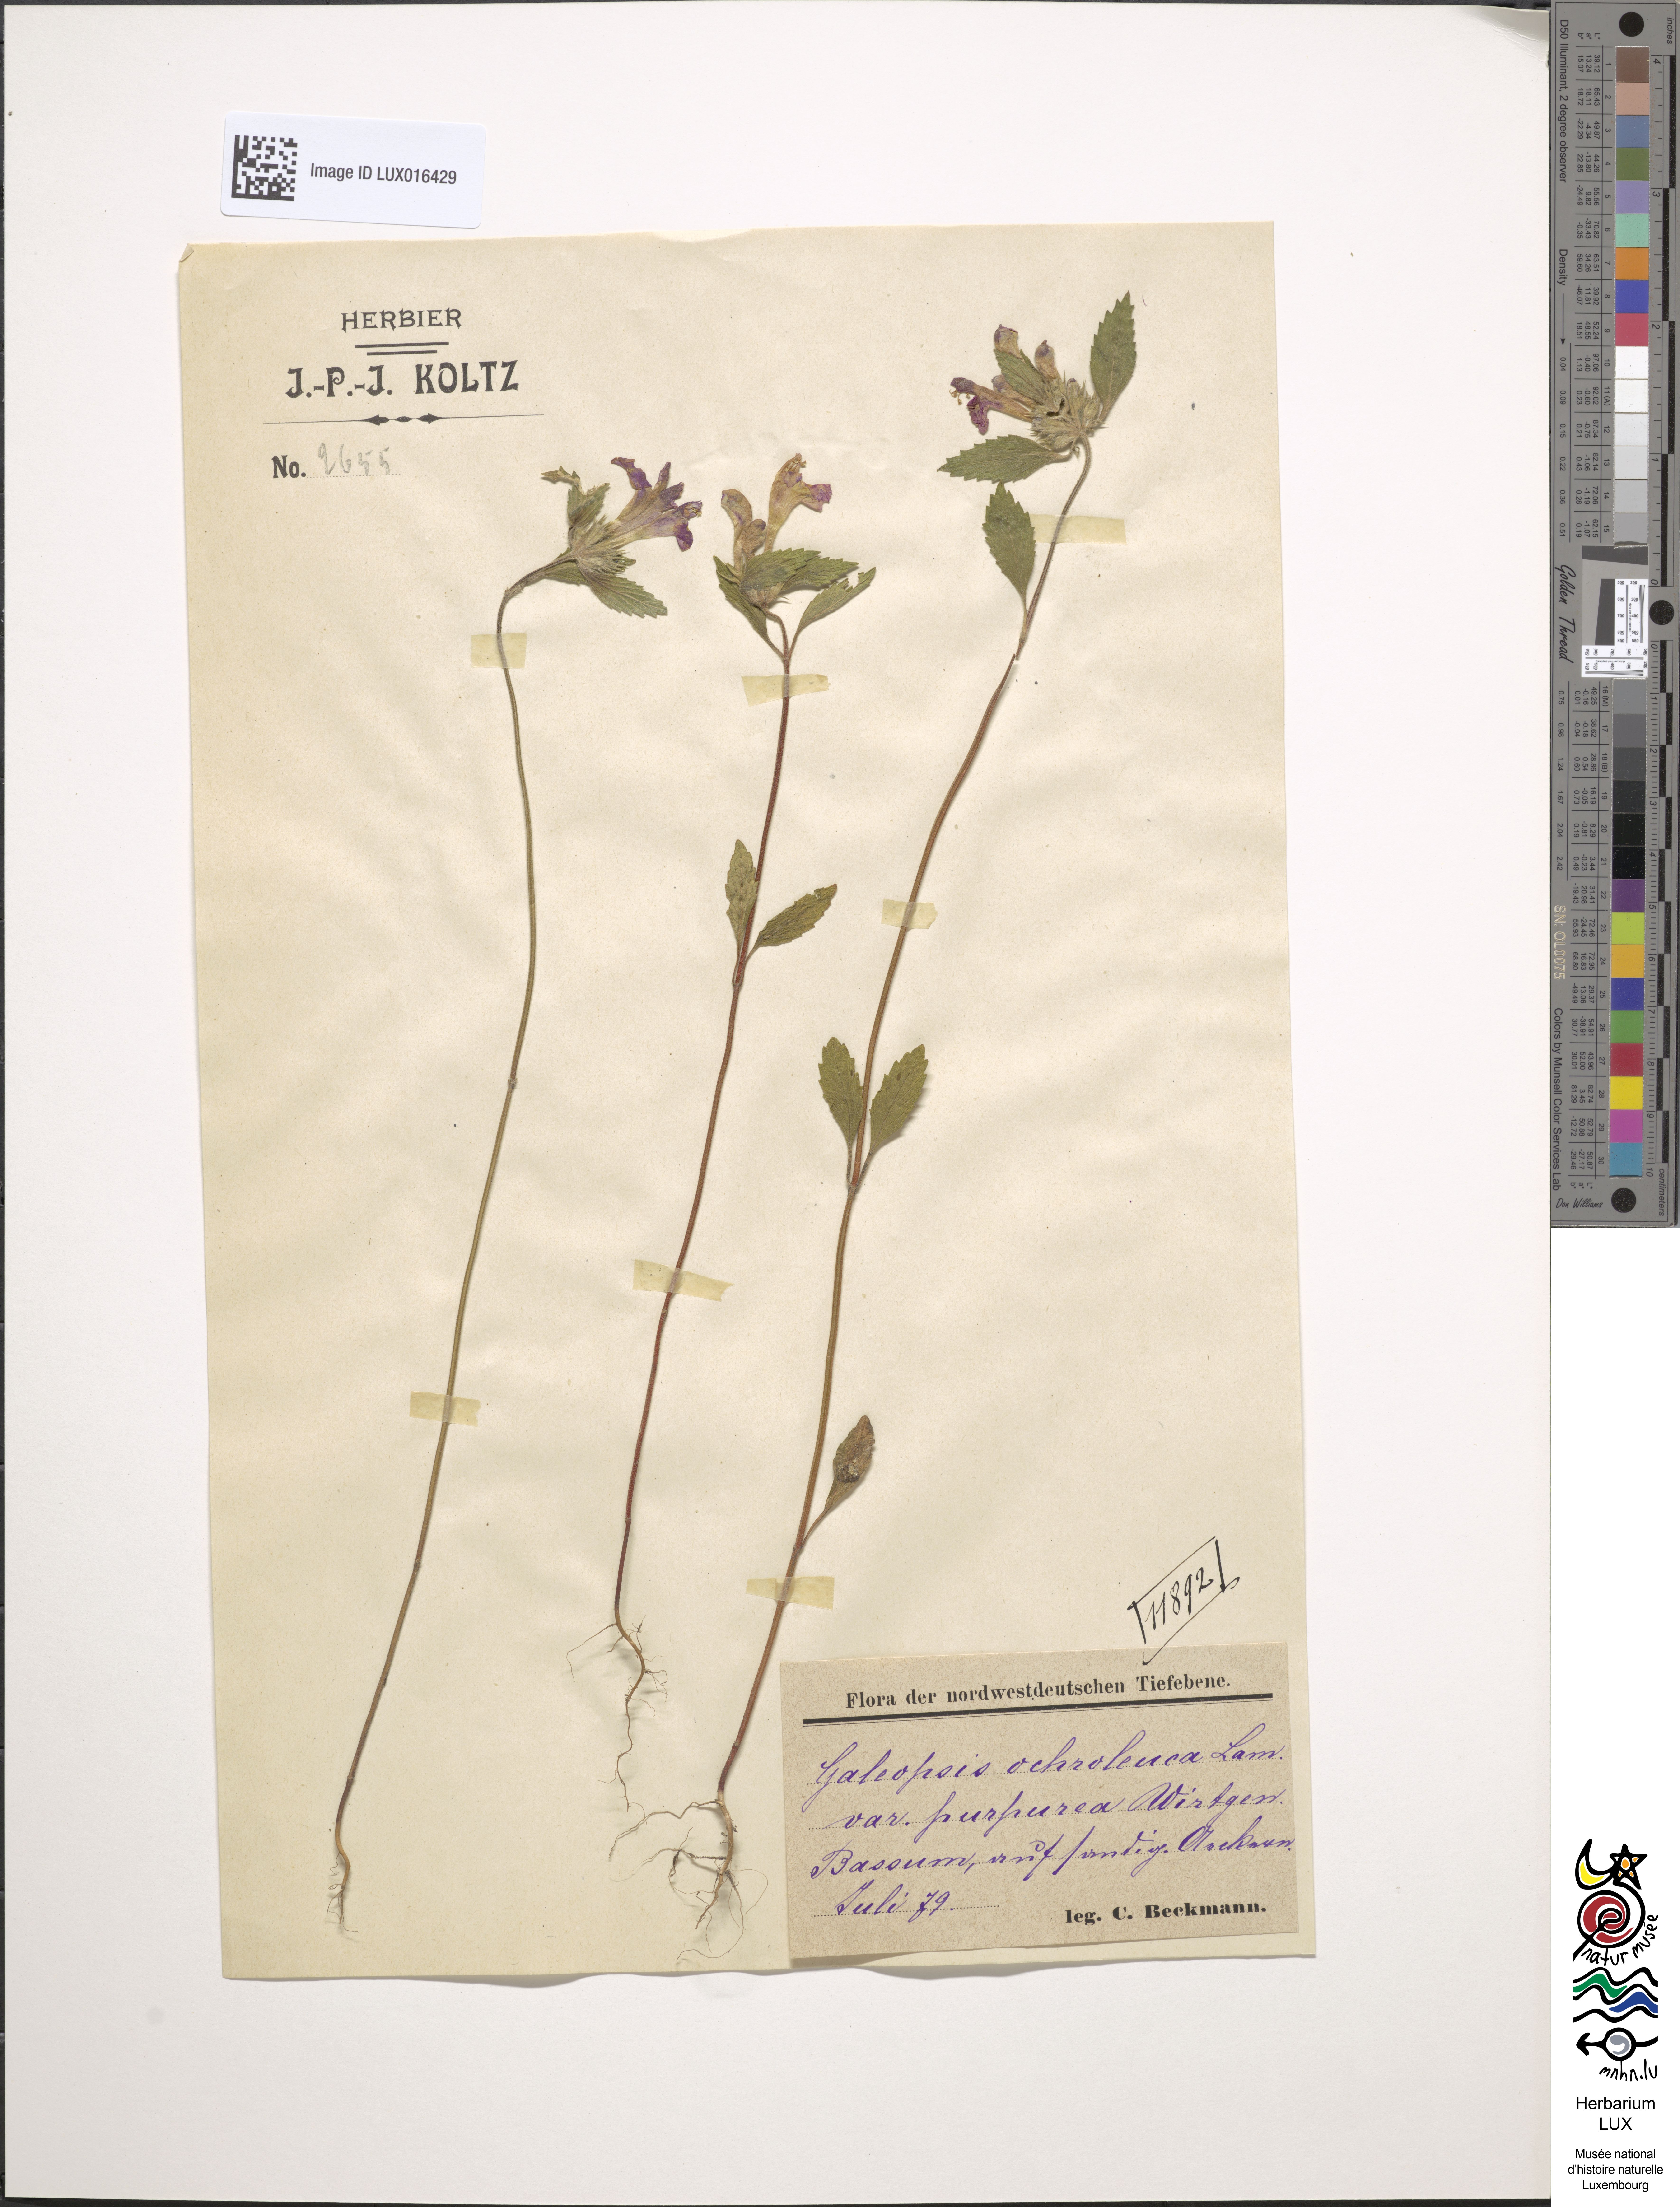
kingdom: Plantae
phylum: Tracheophyta
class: Magnoliopsida
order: Lamiales
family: Lamiaceae
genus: Galeopsis
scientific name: Galeopsis segetum
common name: Downy hemp-nettle
